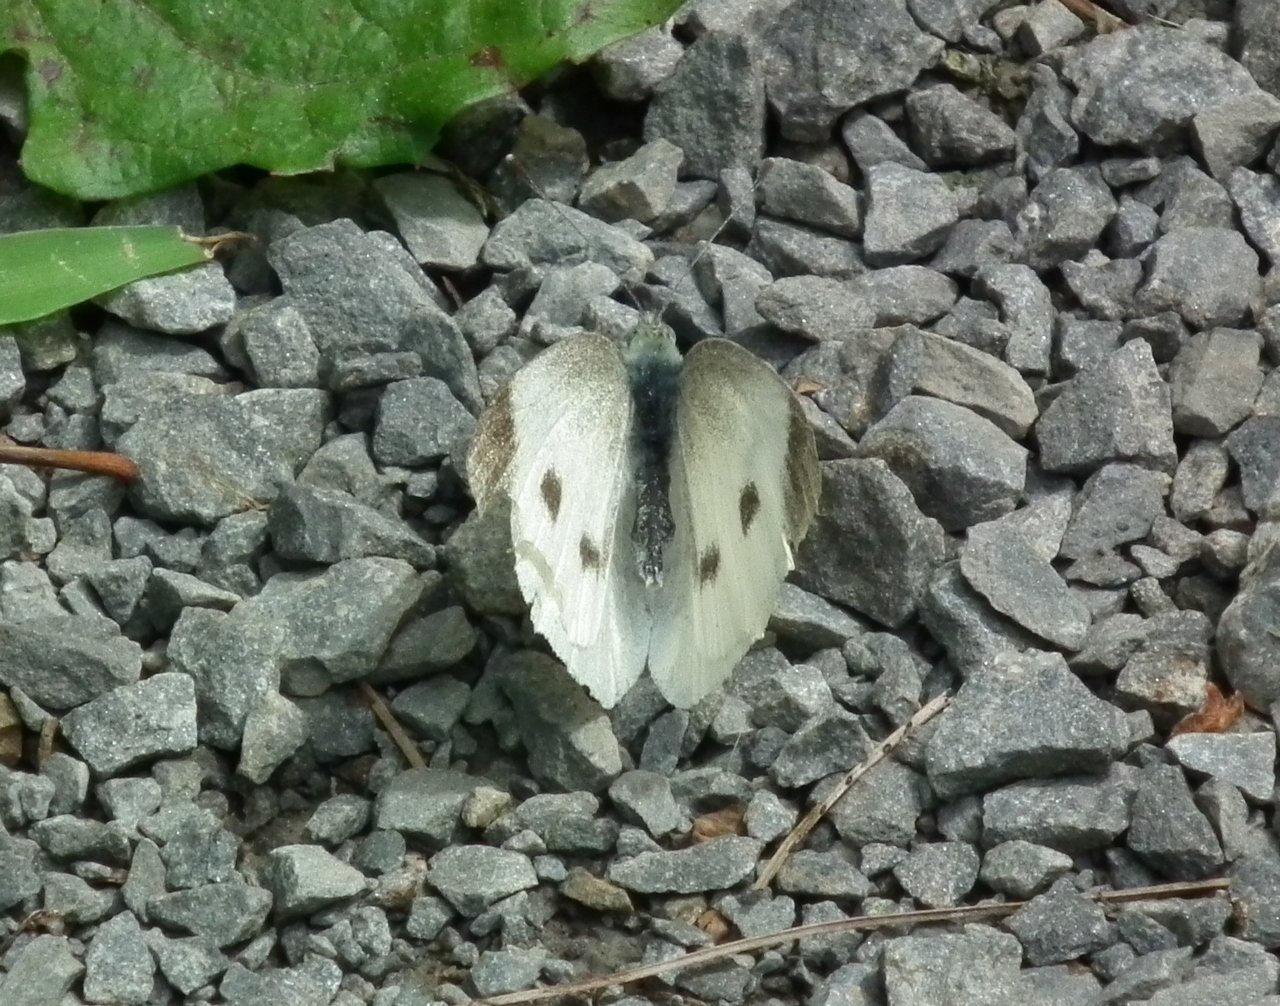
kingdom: Animalia
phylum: Arthropoda
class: Insecta
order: Lepidoptera
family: Pieridae
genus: Pieris
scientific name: Pieris rapae
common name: Cabbage White
